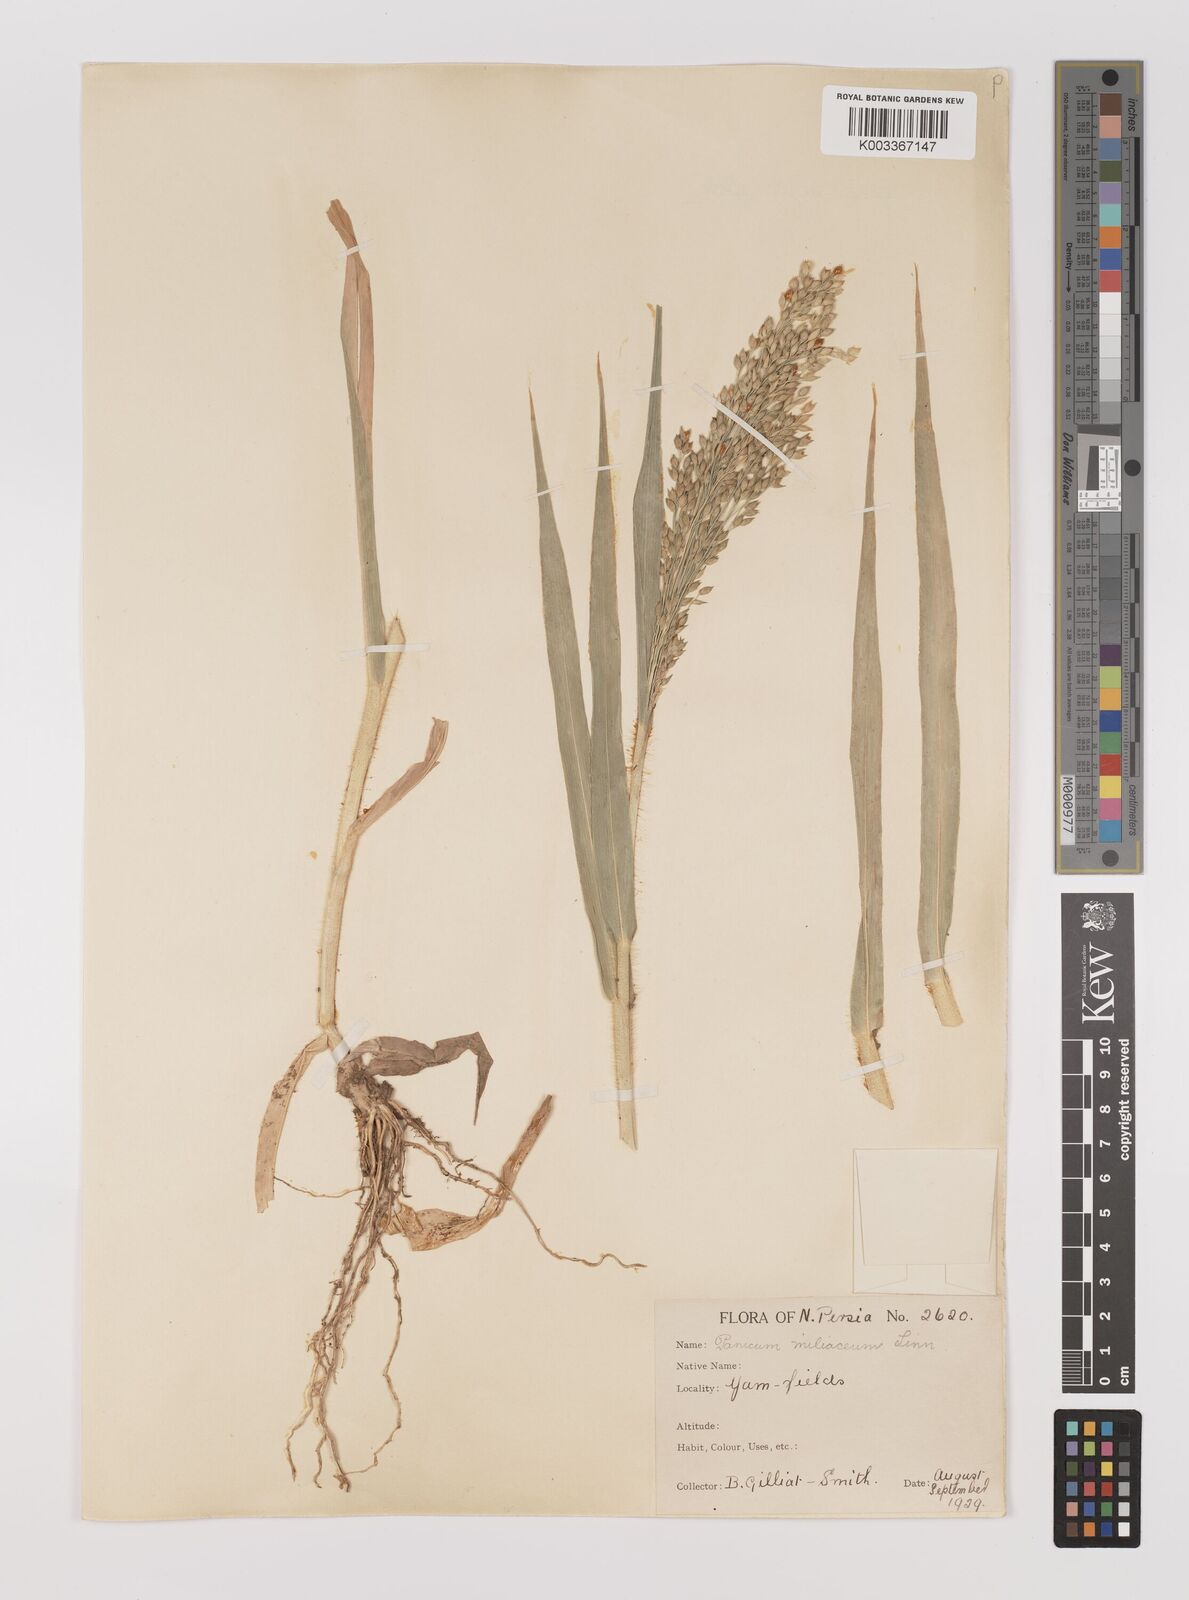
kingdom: Plantae
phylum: Tracheophyta
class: Liliopsida
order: Poales
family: Poaceae
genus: Panicum
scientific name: Panicum miliaceum
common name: Common millet
